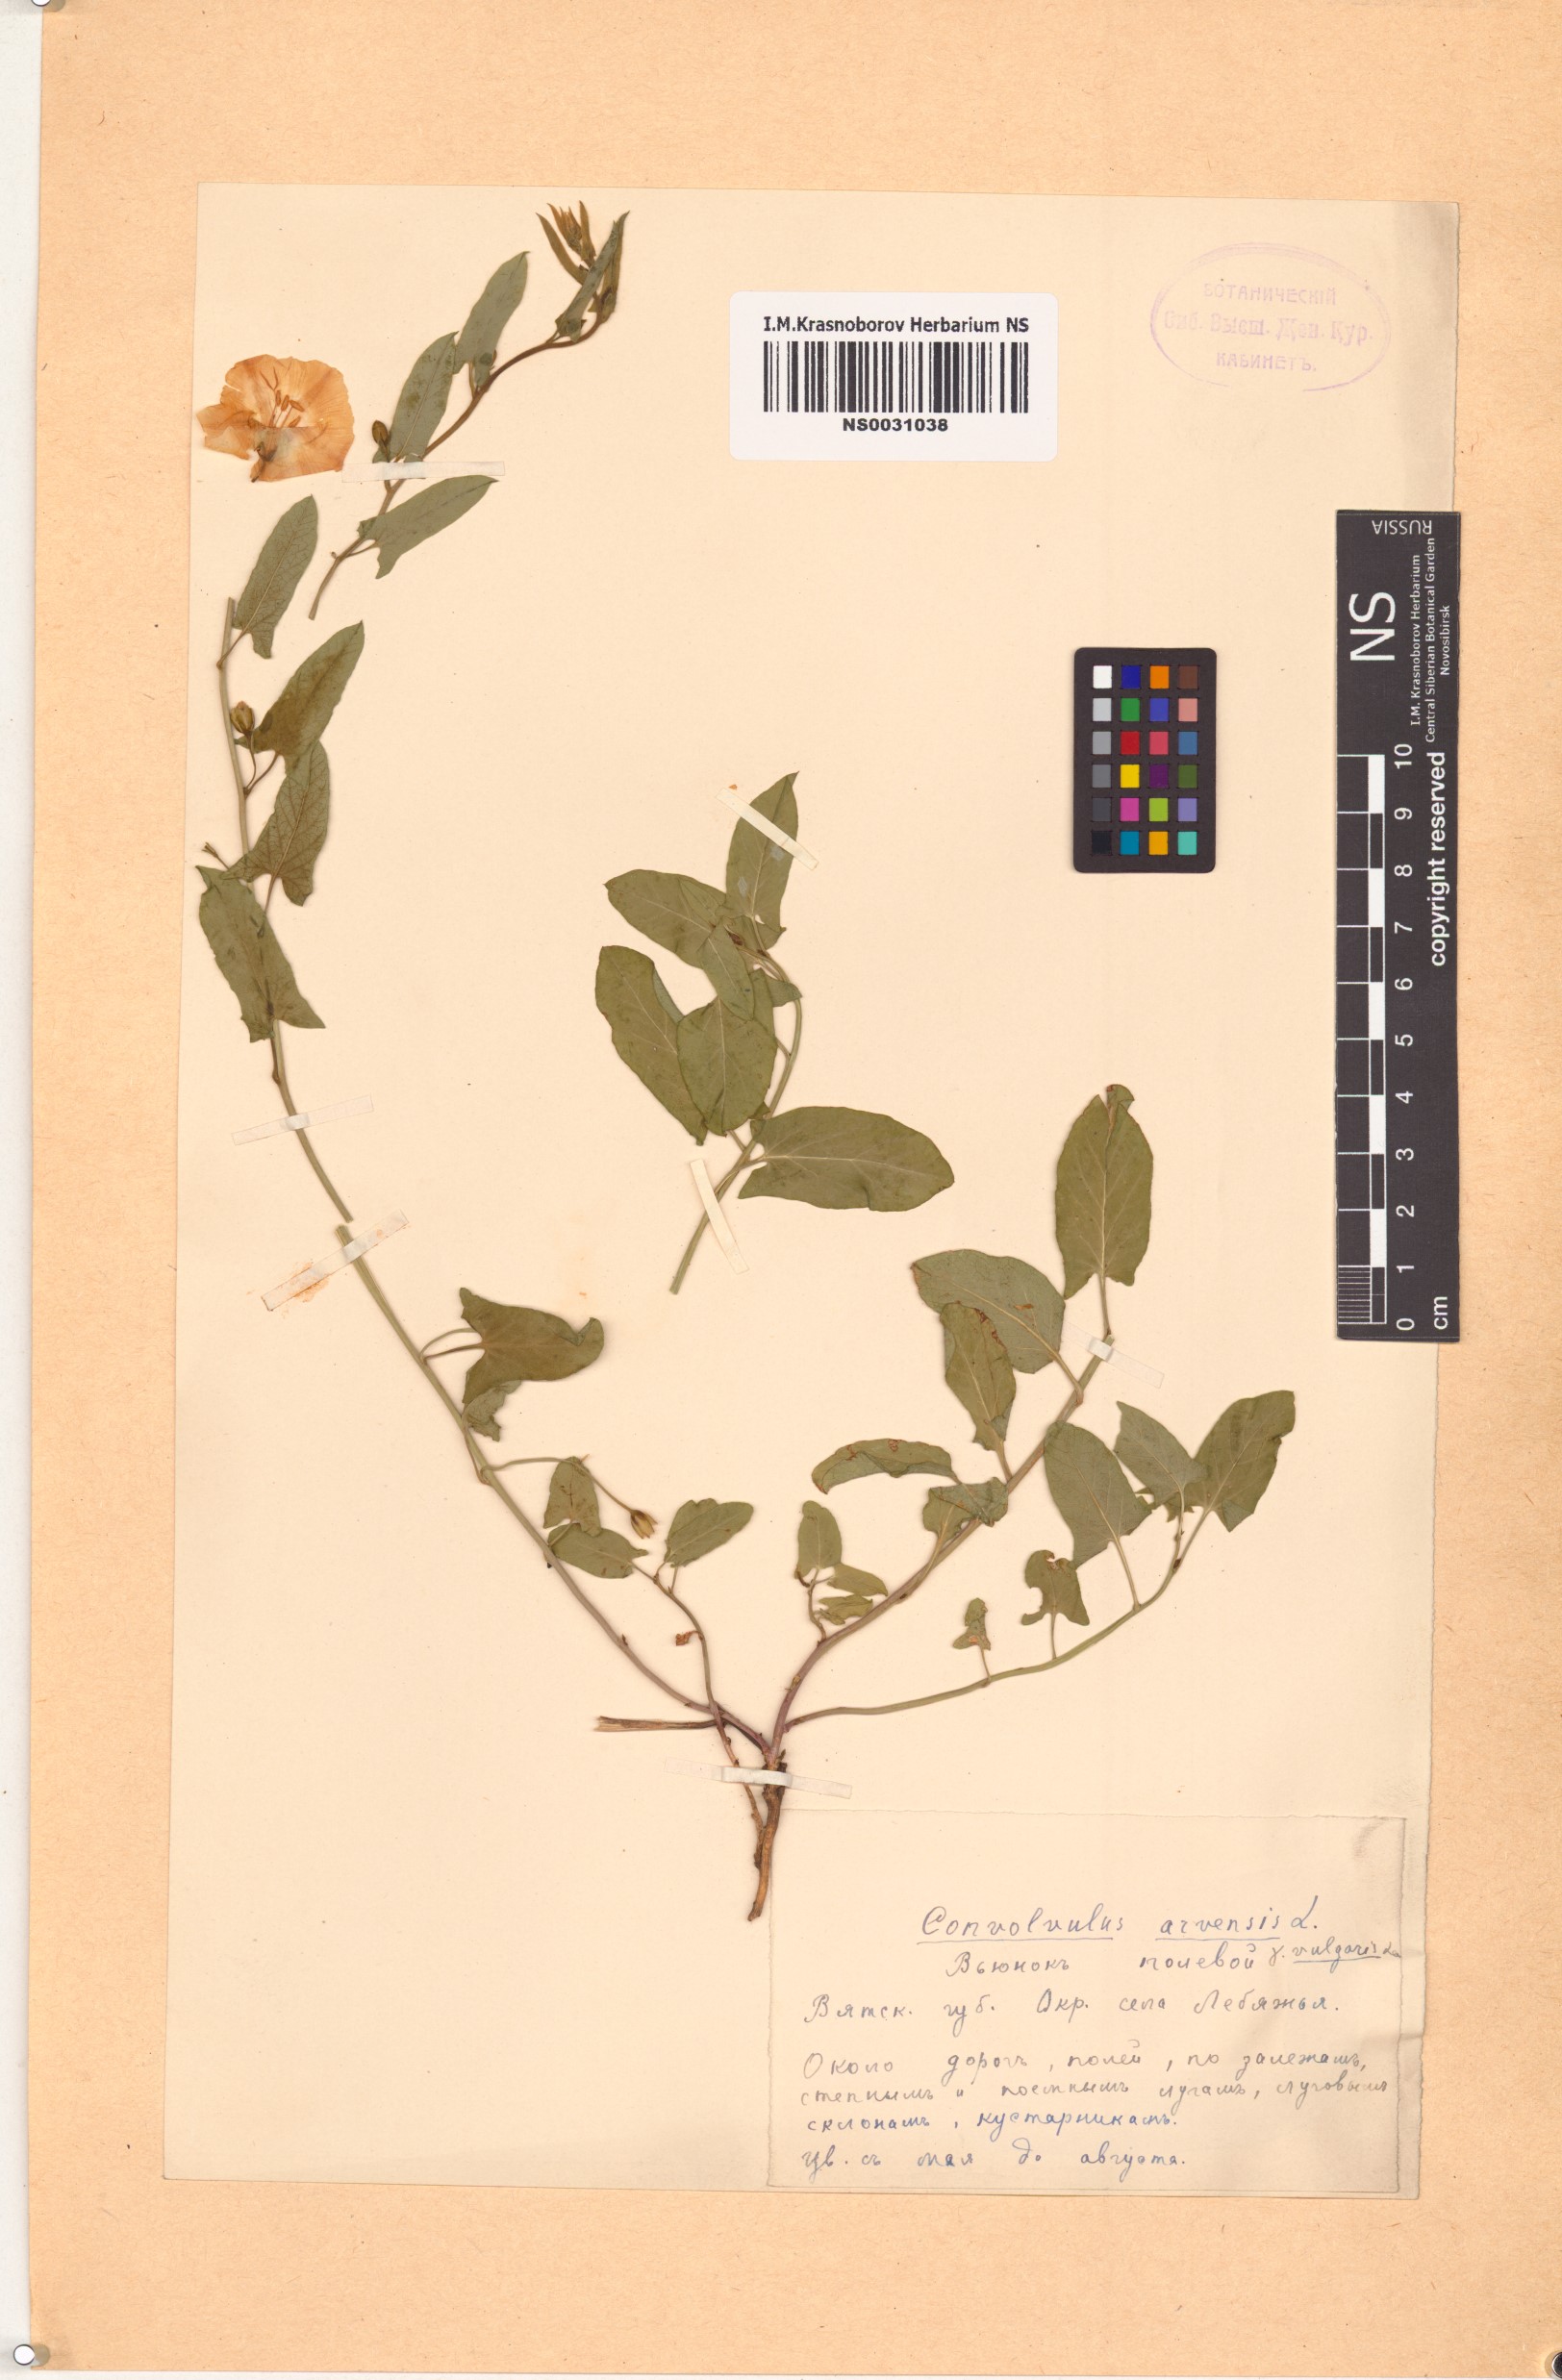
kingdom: Plantae
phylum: Tracheophyta
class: Magnoliopsida
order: Solanales
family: Convolvulaceae
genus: Convolvulus
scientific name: Convolvulus arvensis
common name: Field bindweed
